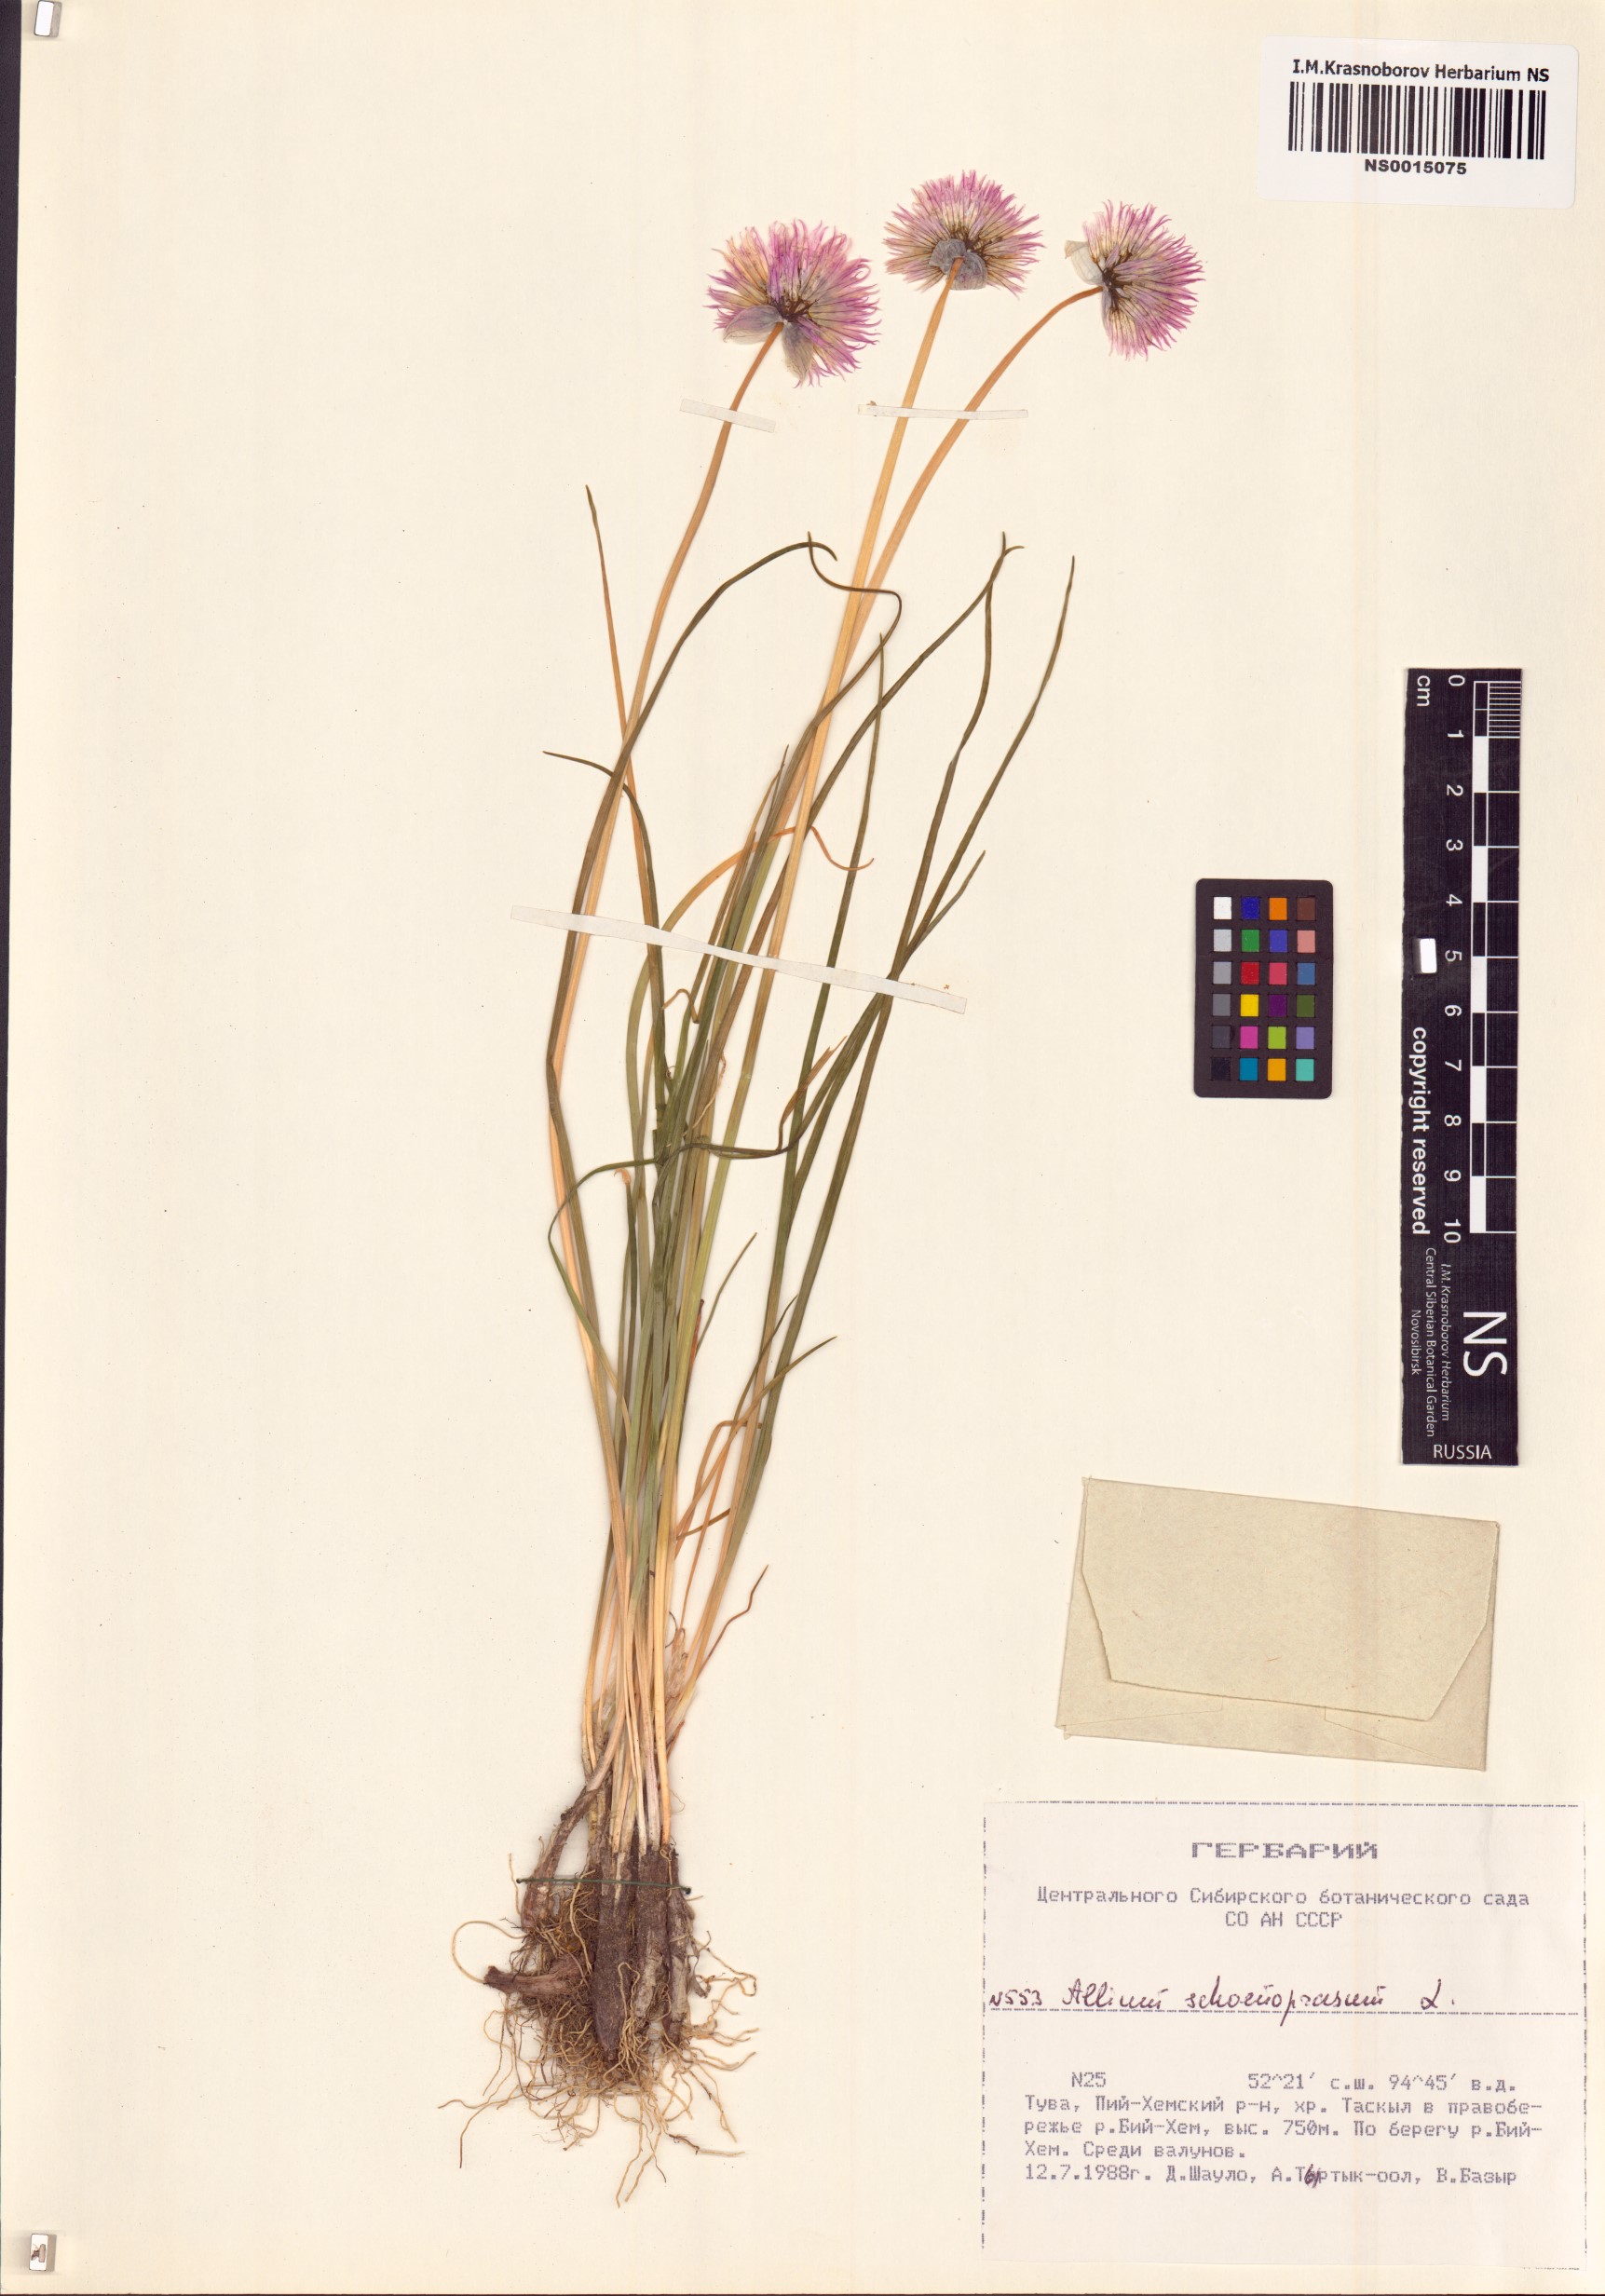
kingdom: Plantae
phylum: Tracheophyta
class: Liliopsida
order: Asparagales
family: Amaryllidaceae
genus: Allium
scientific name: Allium schoenoprasum
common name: Chives
